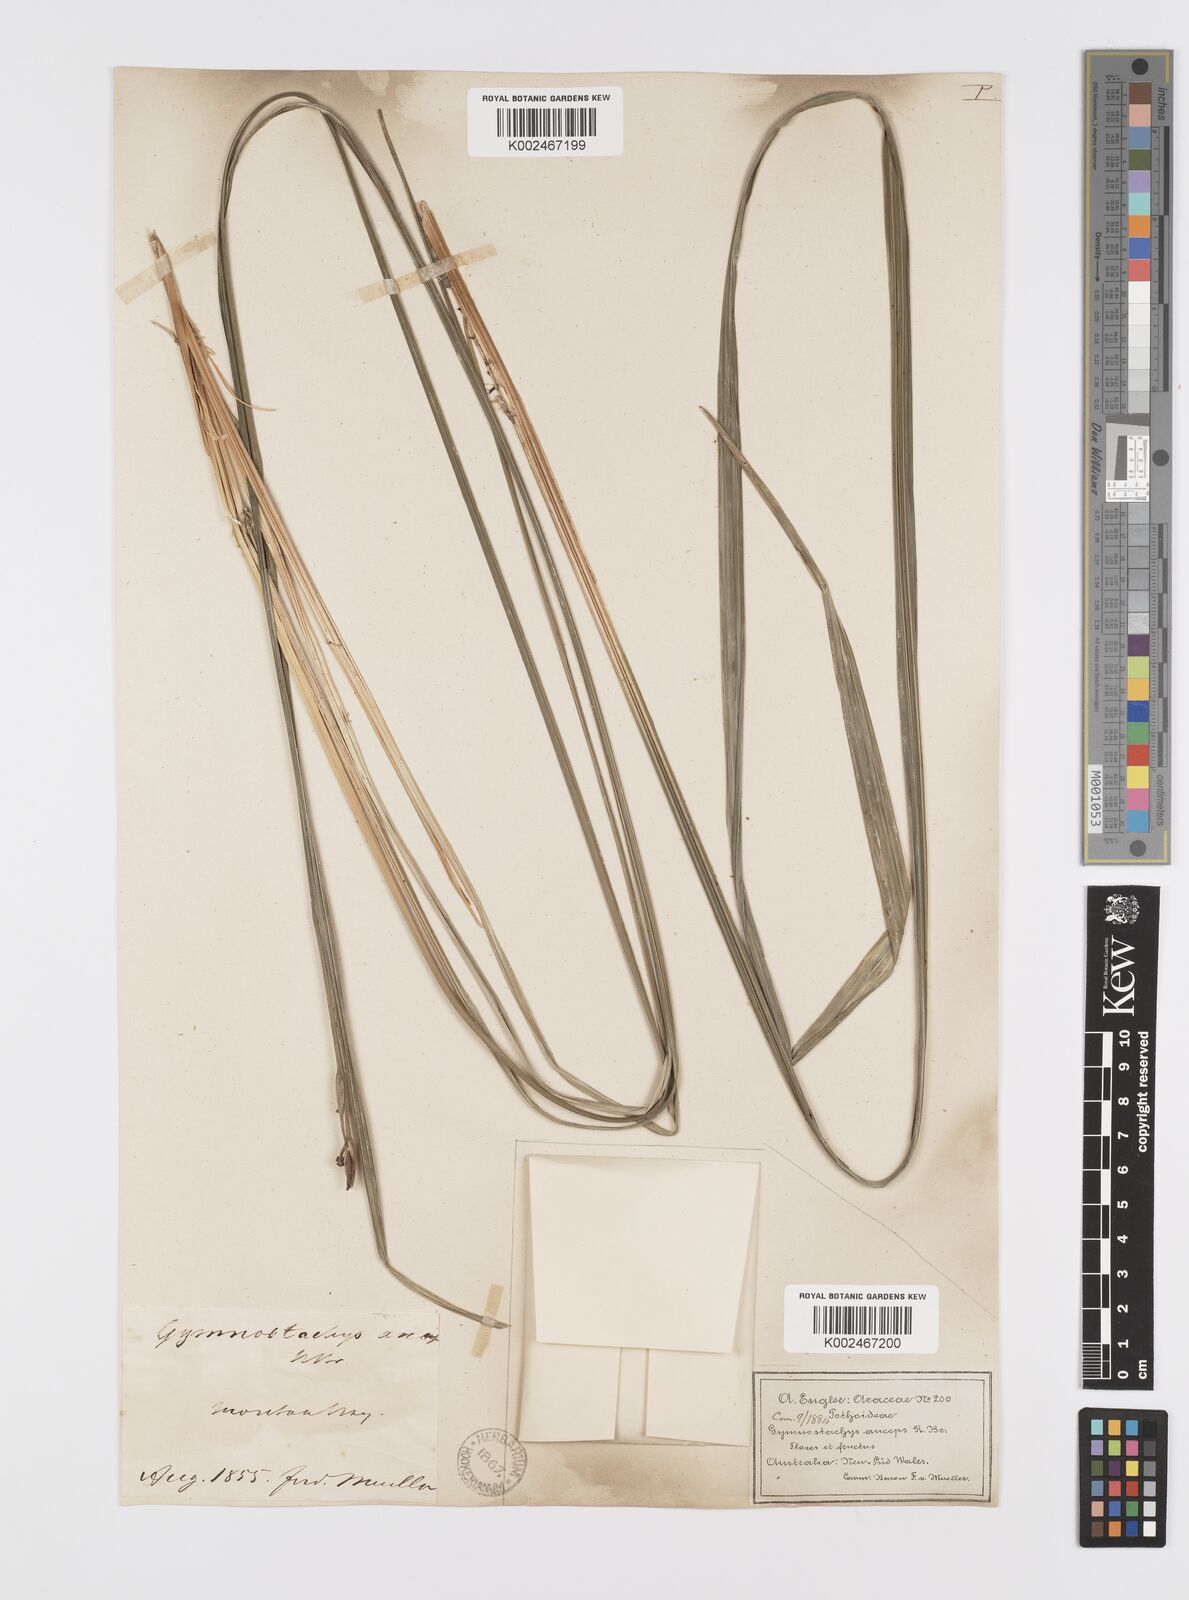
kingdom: Plantae
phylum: Tracheophyta
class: Liliopsida
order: Alismatales
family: Araceae
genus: Gymnostachys
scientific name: Gymnostachys anceps
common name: Settler's-flax
